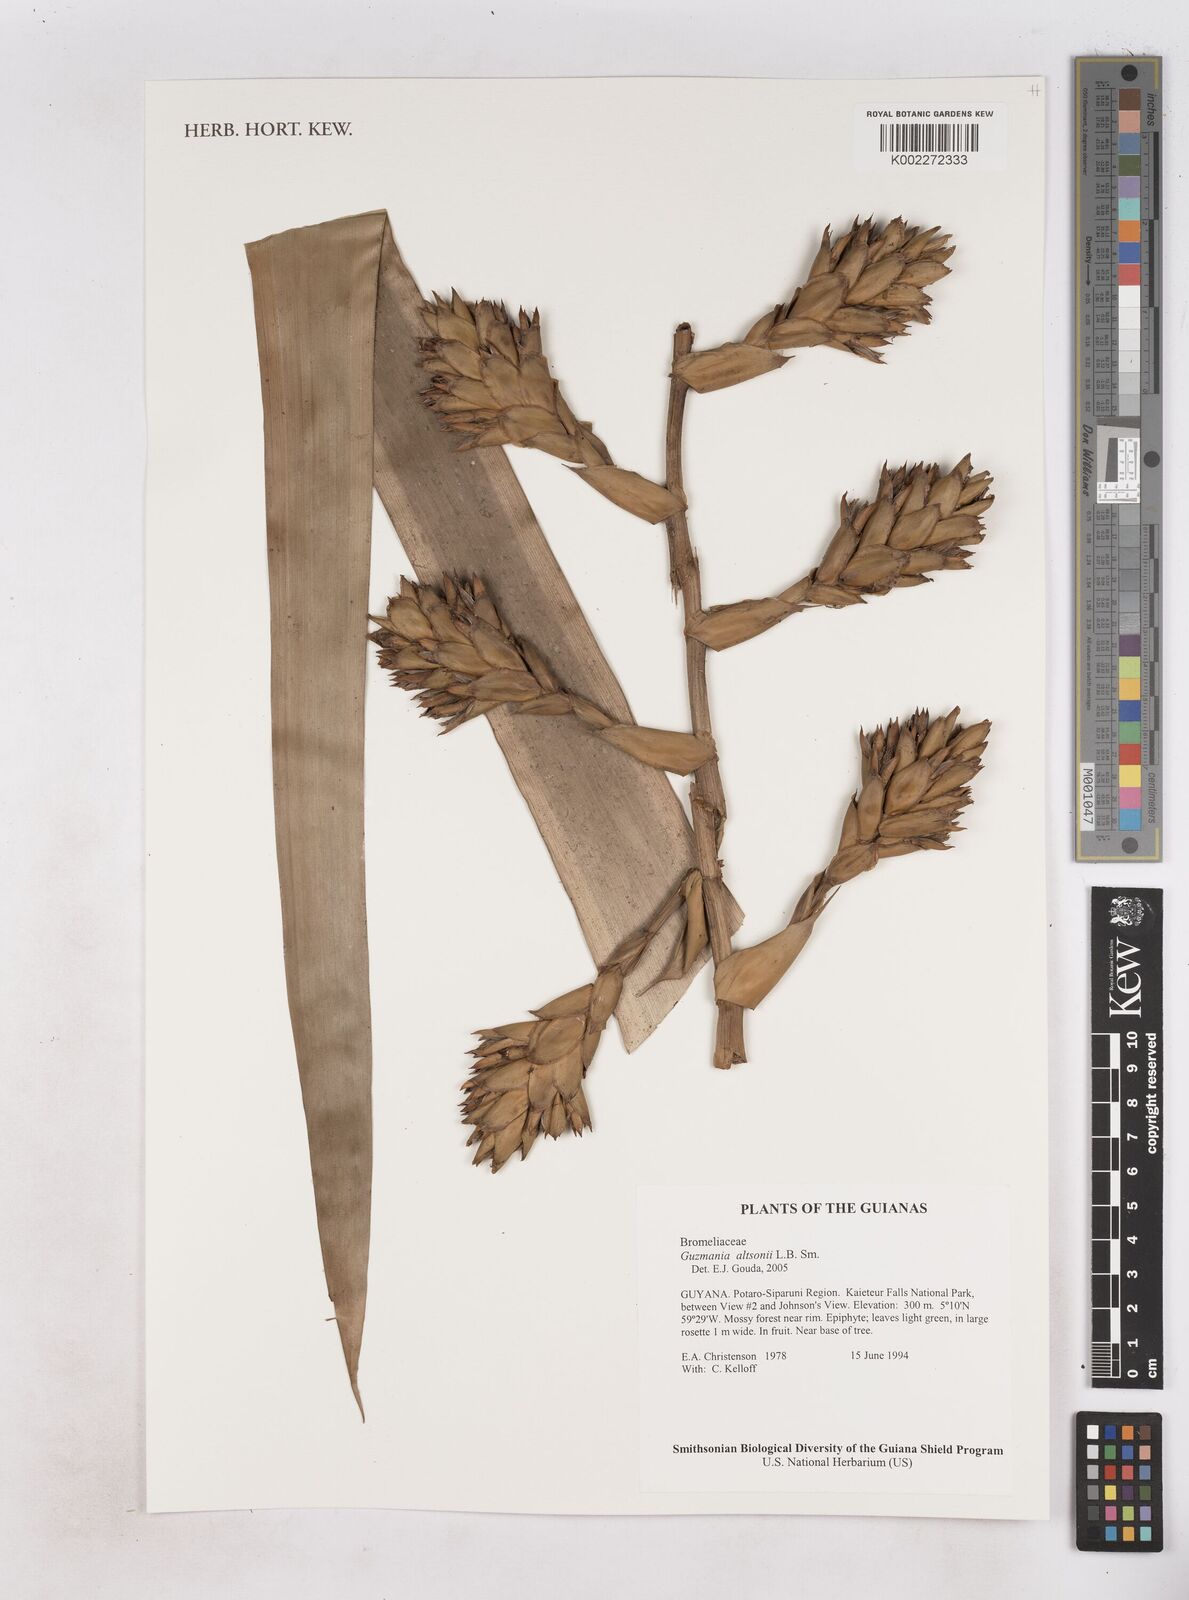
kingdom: Plantae
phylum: Tracheophyta
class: Liliopsida
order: Poales
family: Bromeliaceae
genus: Guzmania
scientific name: Guzmania altsonii
